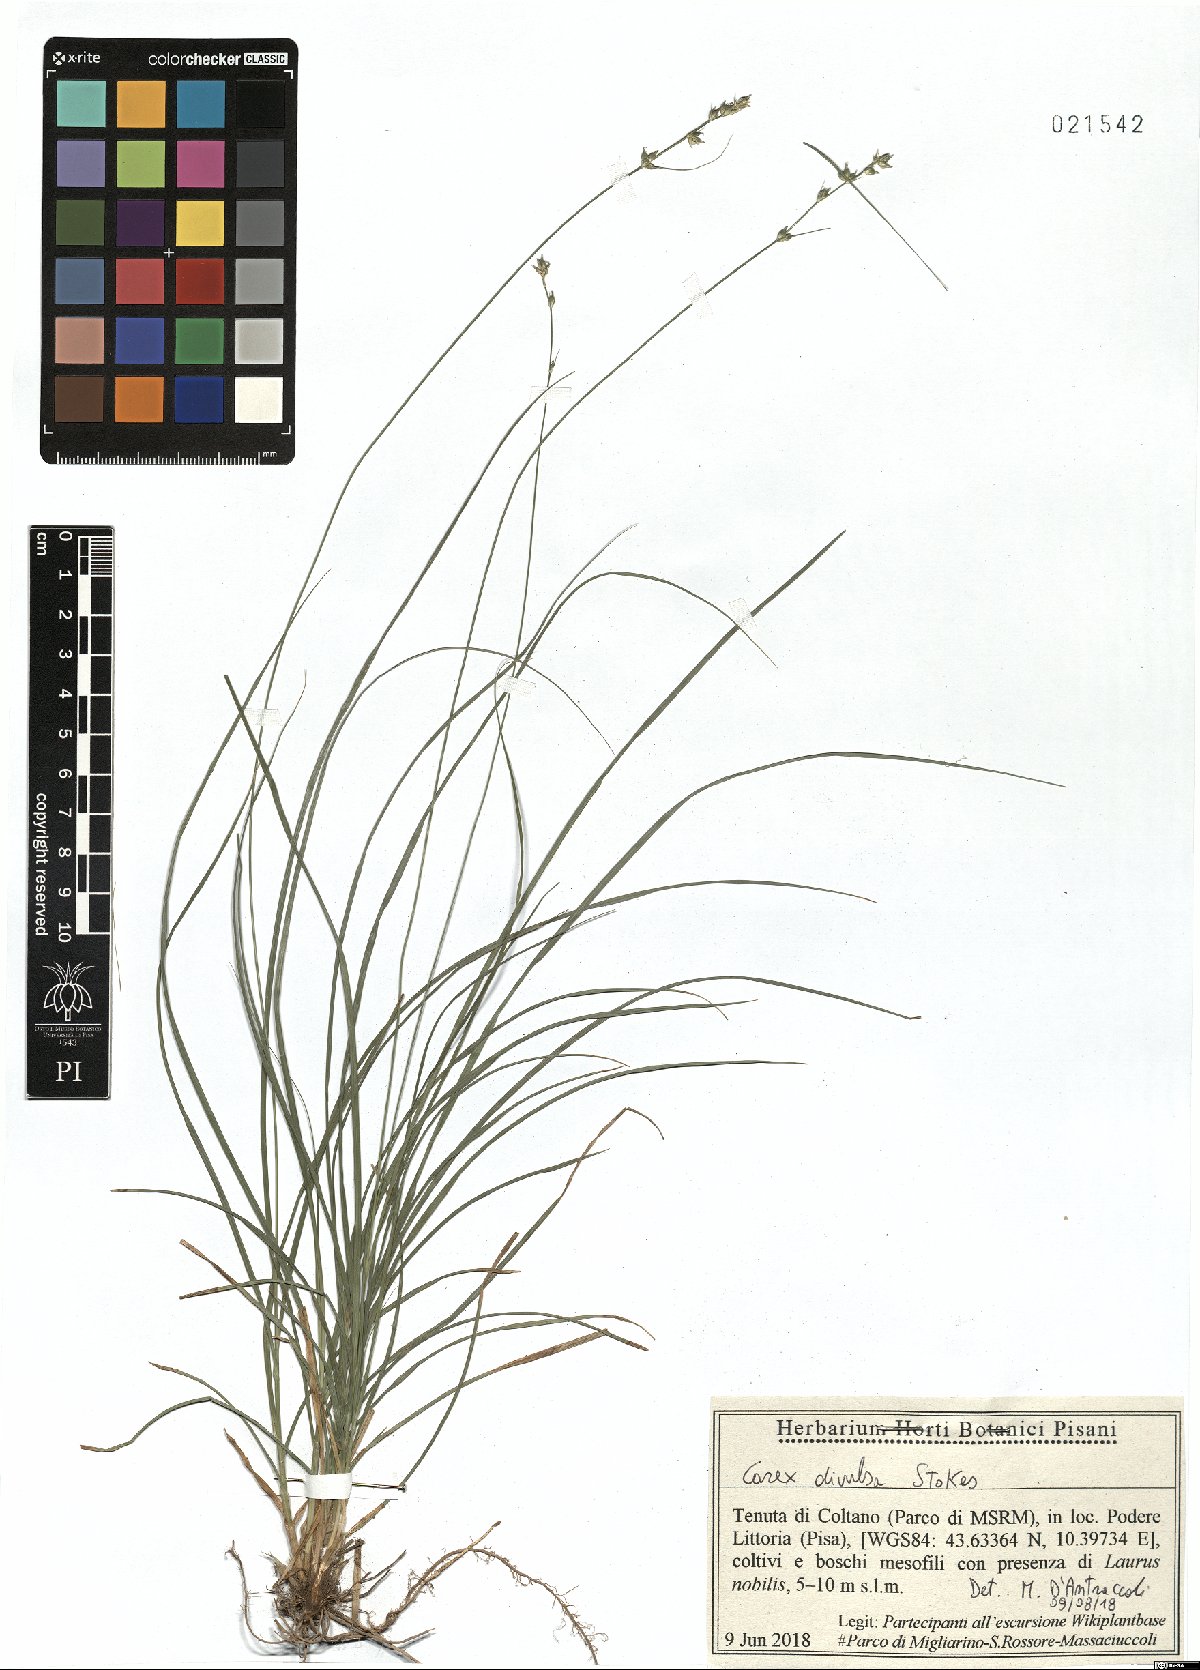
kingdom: Plantae
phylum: Tracheophyta
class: Liliopsida
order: Poales
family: Cyperaceae
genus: Carex
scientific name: Carex divulsa
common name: Grassland sedge
